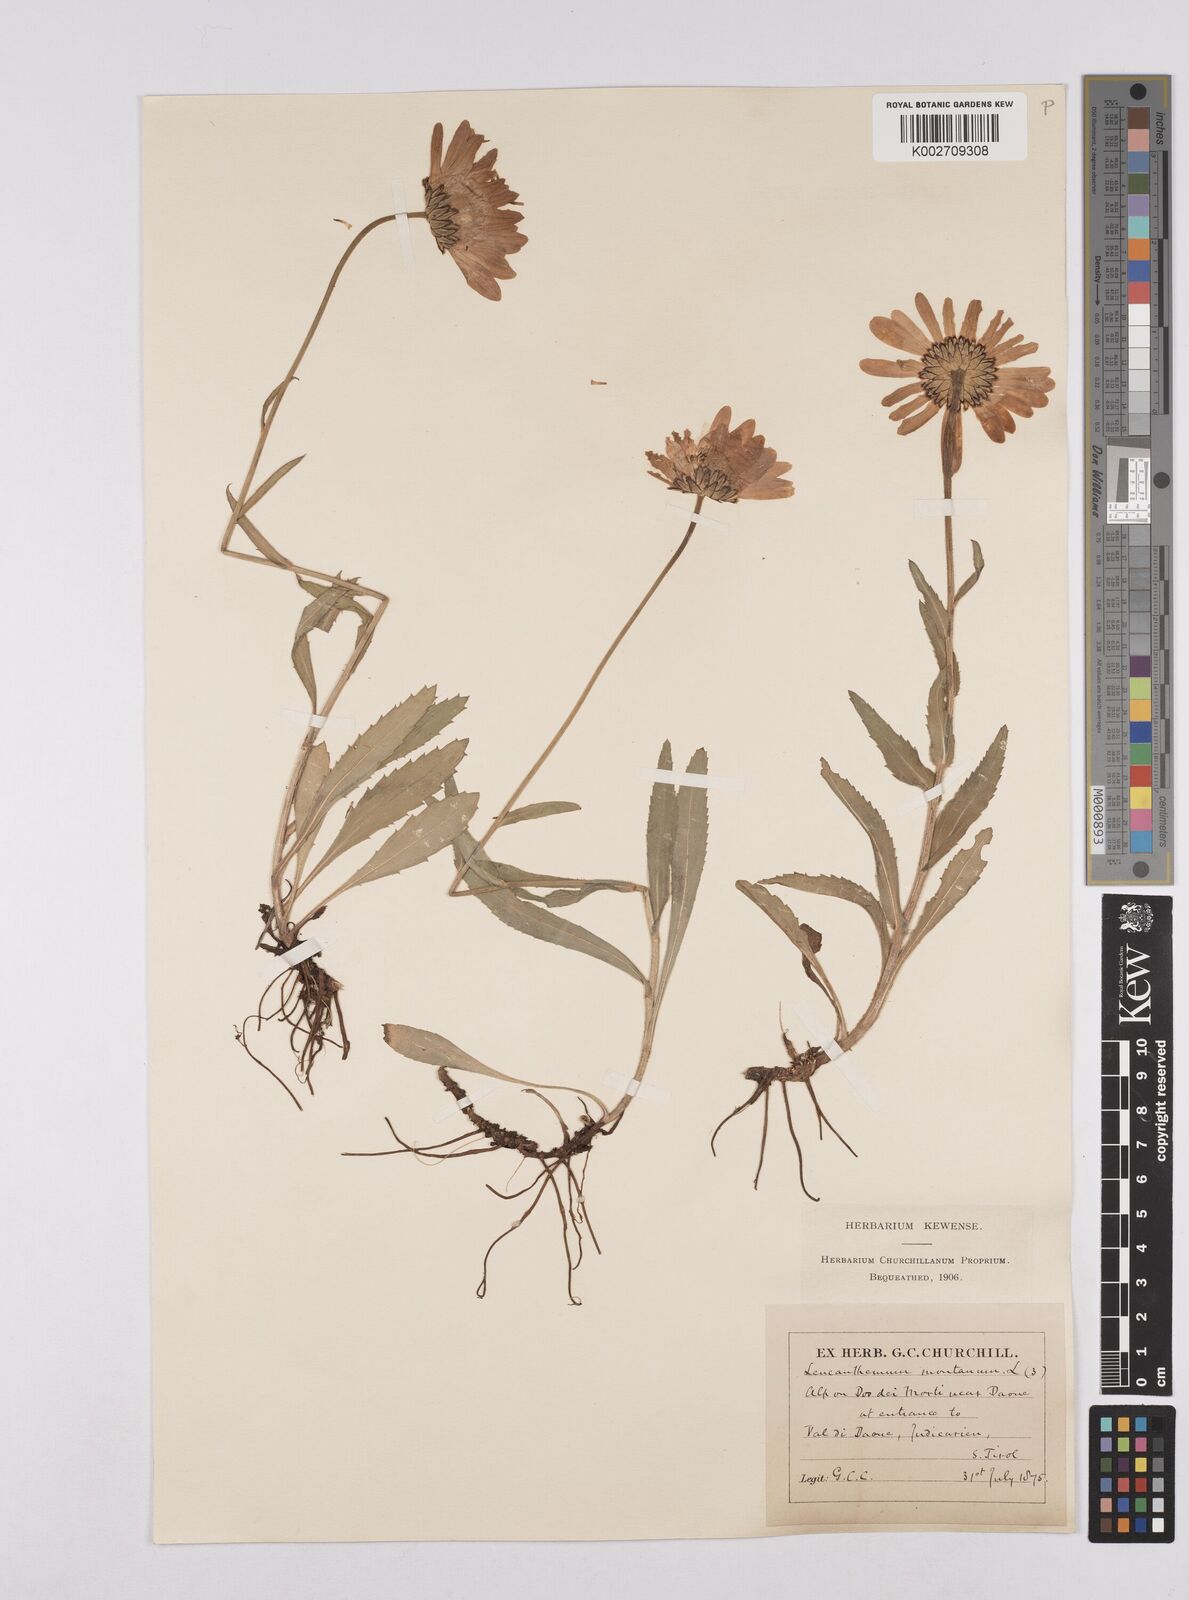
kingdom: Plantae
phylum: Tracheophyta
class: Magnoliopsida
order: Asterales
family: Asteraceae
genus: Leucanthemum
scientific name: Leucanthemum chloroticum
